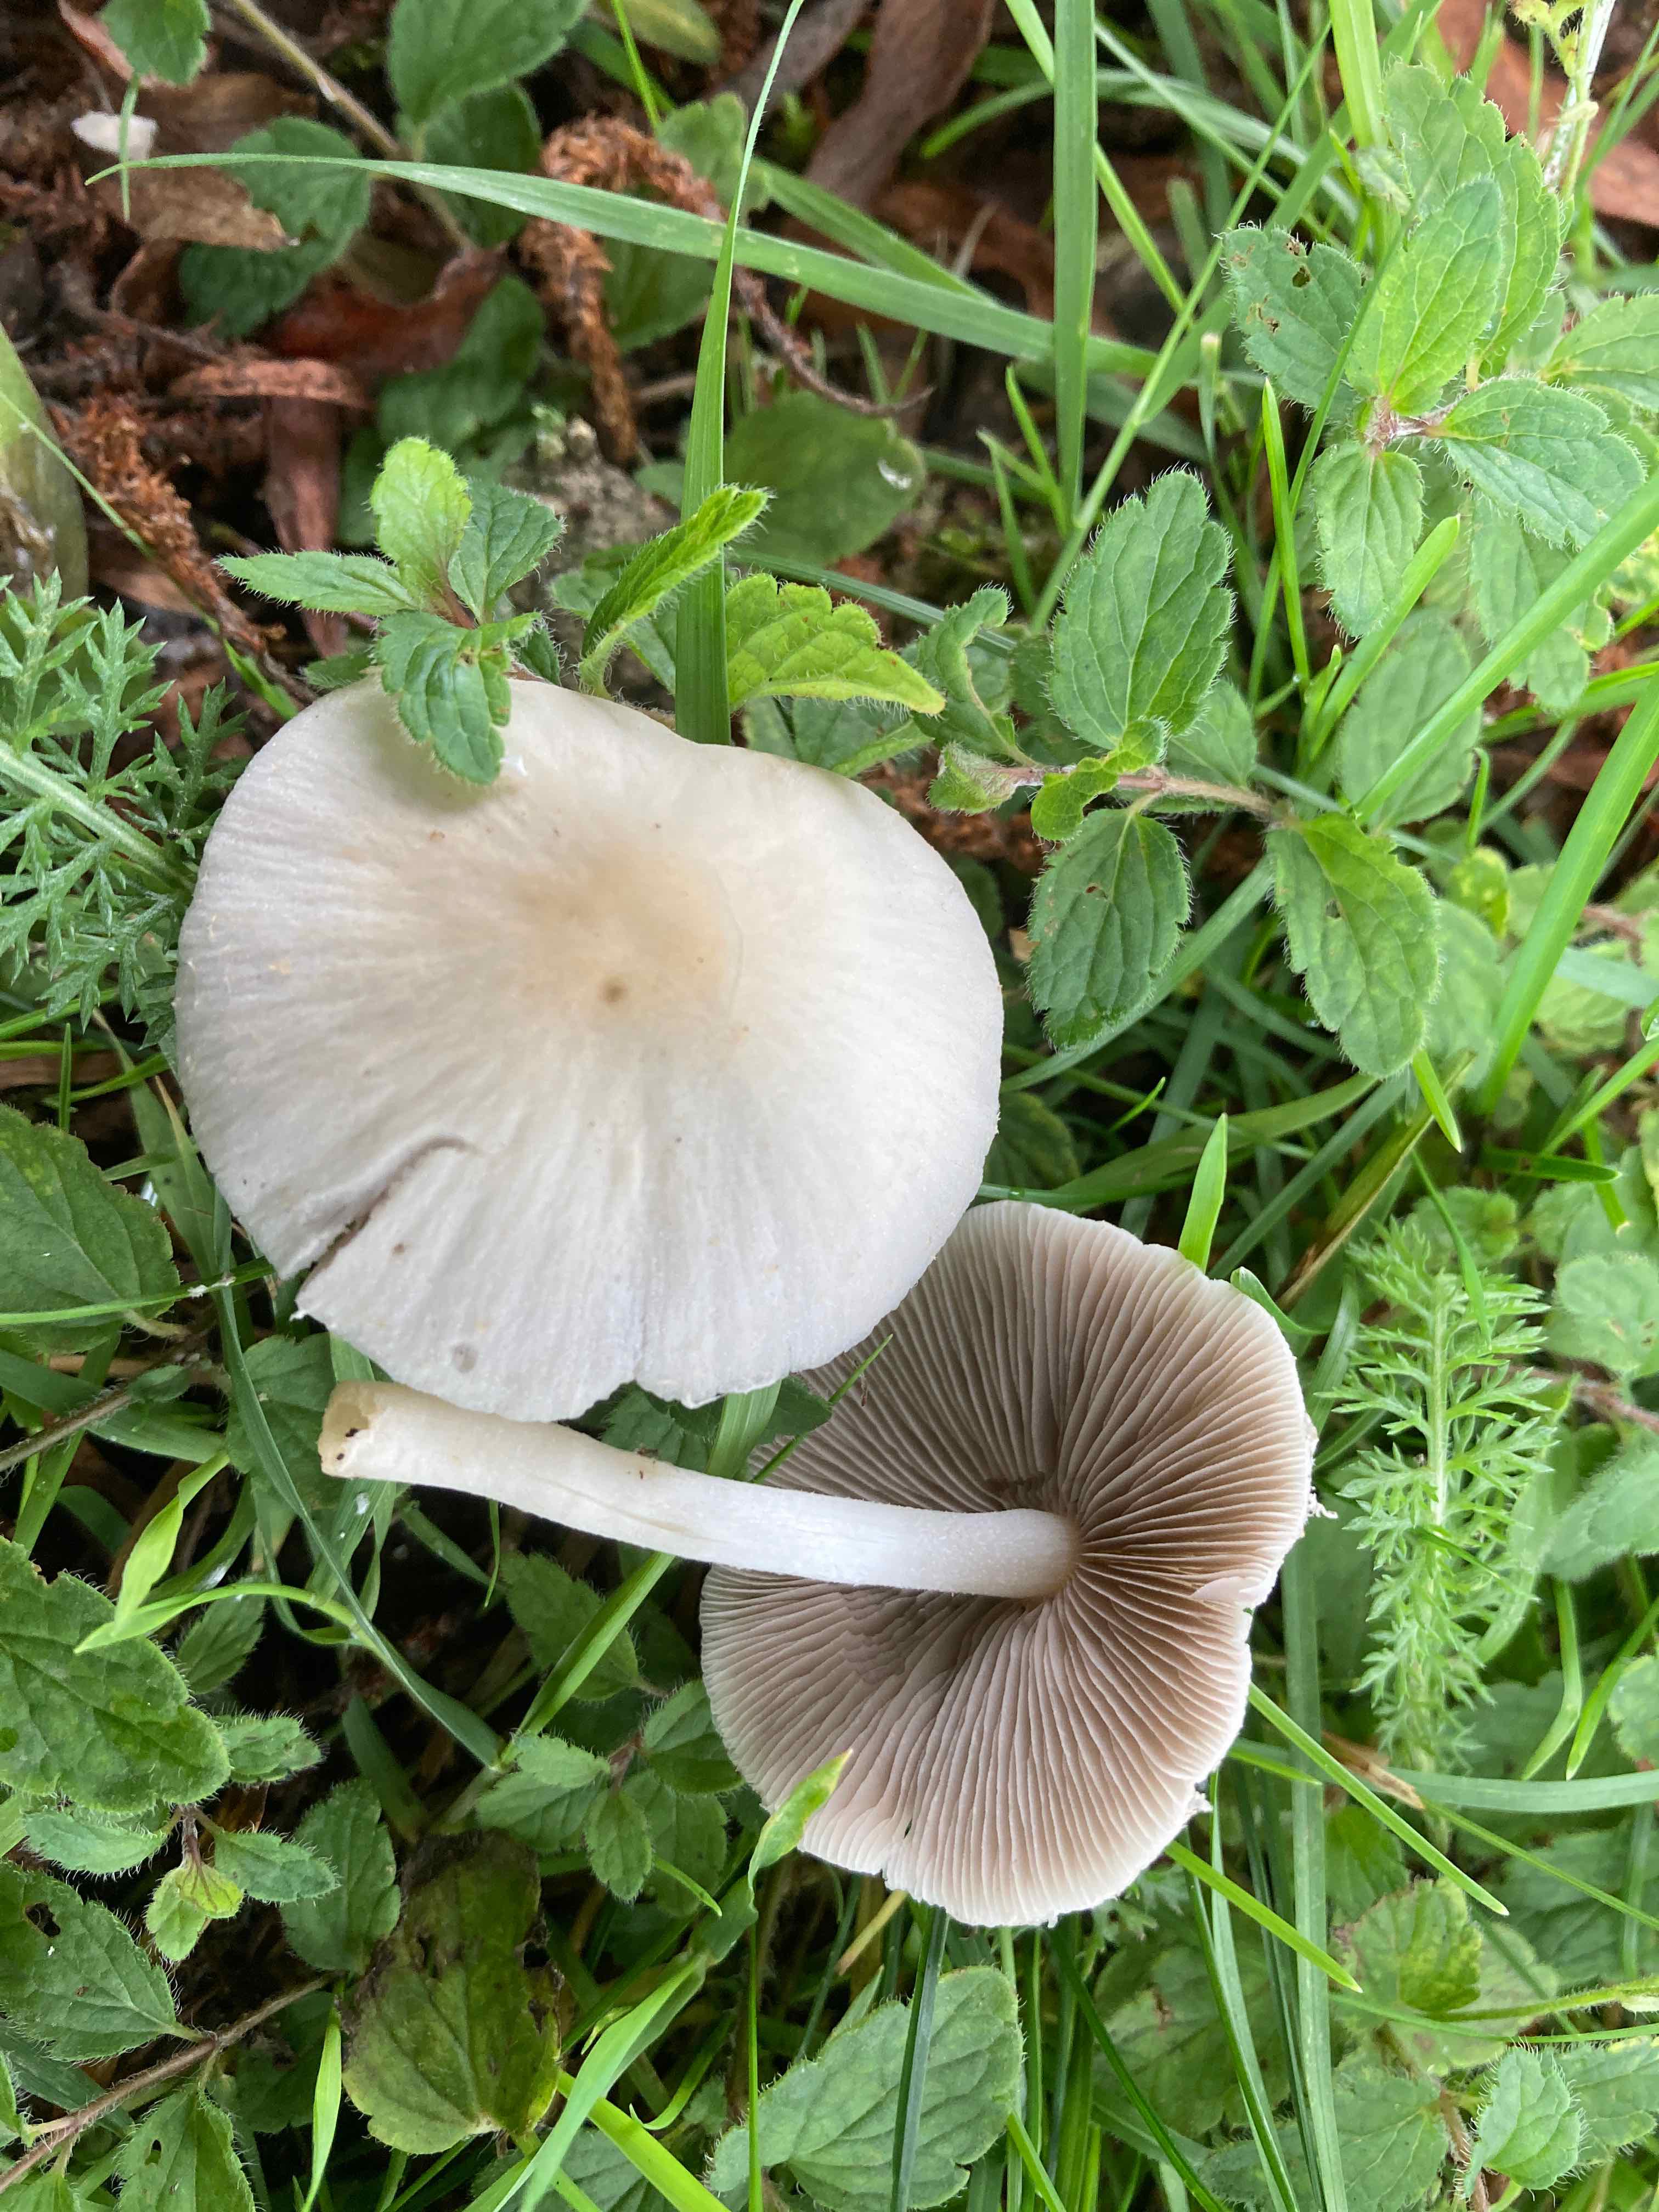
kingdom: Fungi
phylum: Basidiomycota
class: Agaricomycetes
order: Agaricales
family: Psathyrellaceae
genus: Candolleomyces
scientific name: Candolleomyces candolleanus
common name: Candolles mørkhat
